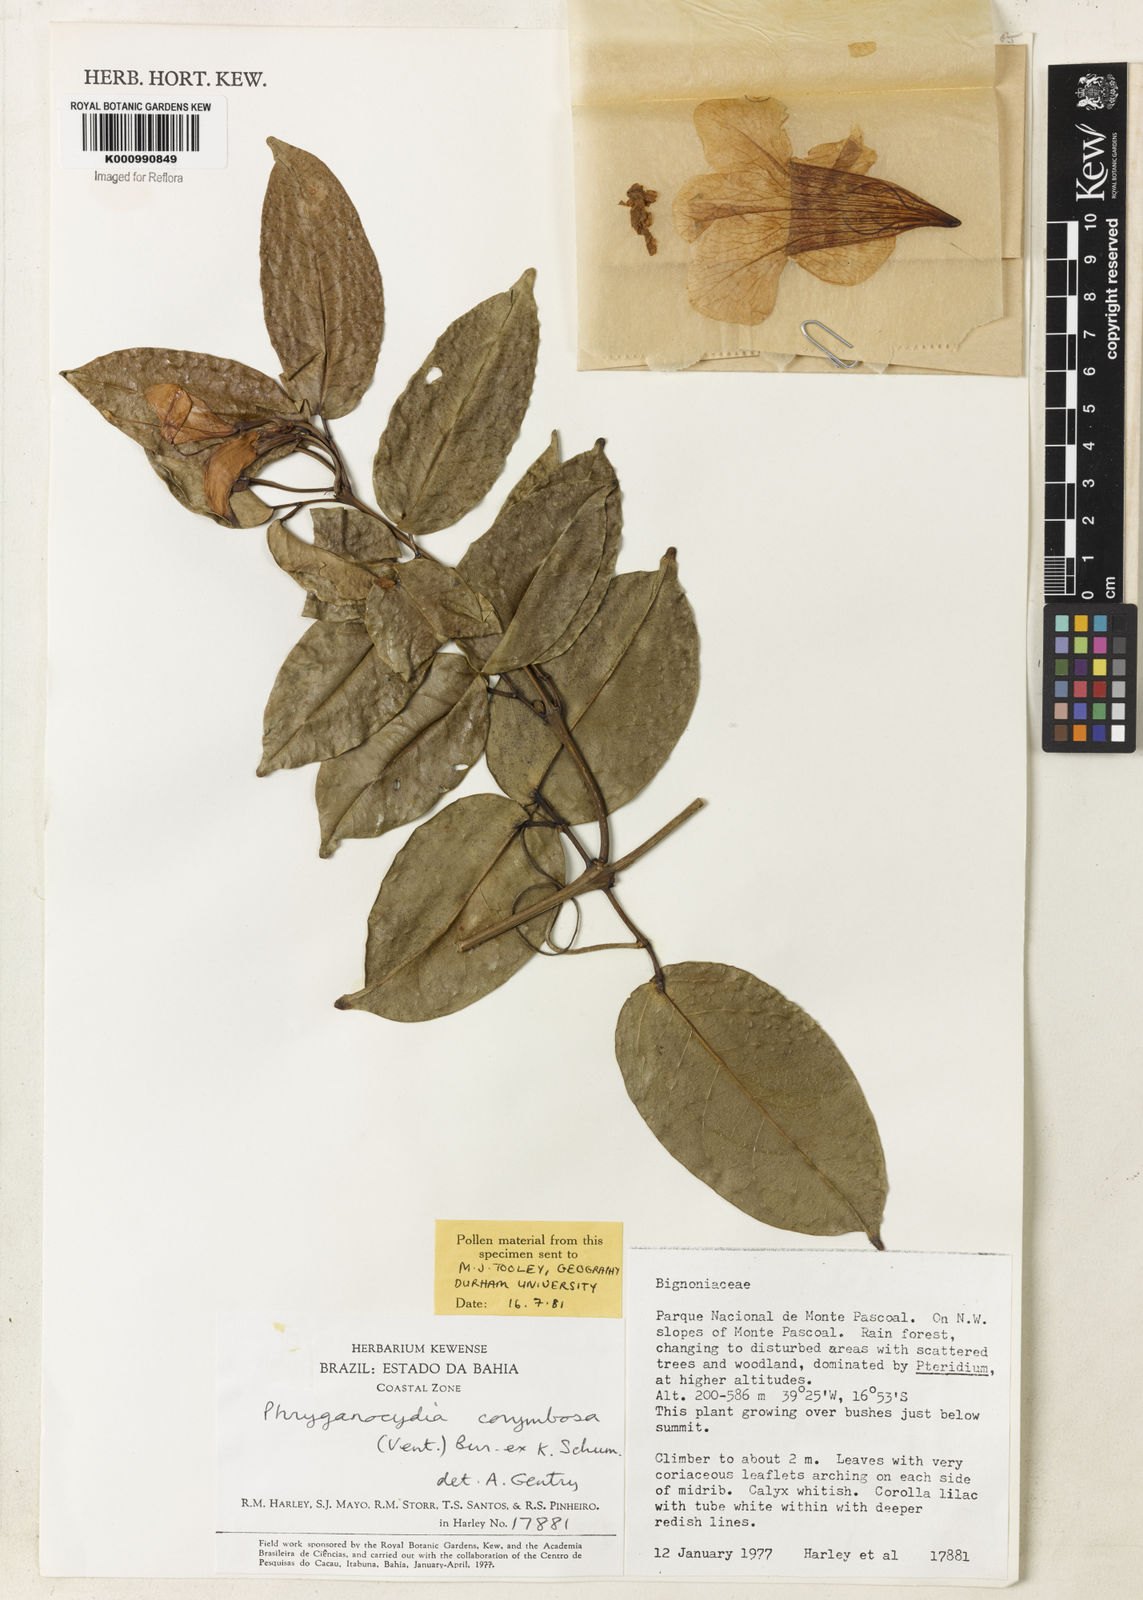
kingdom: Plantae
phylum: Tracheophyta
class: Magnoliopsida
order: Lamiales
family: Bignoniaceae
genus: Bignonia
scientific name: Bignonia corymbosa
